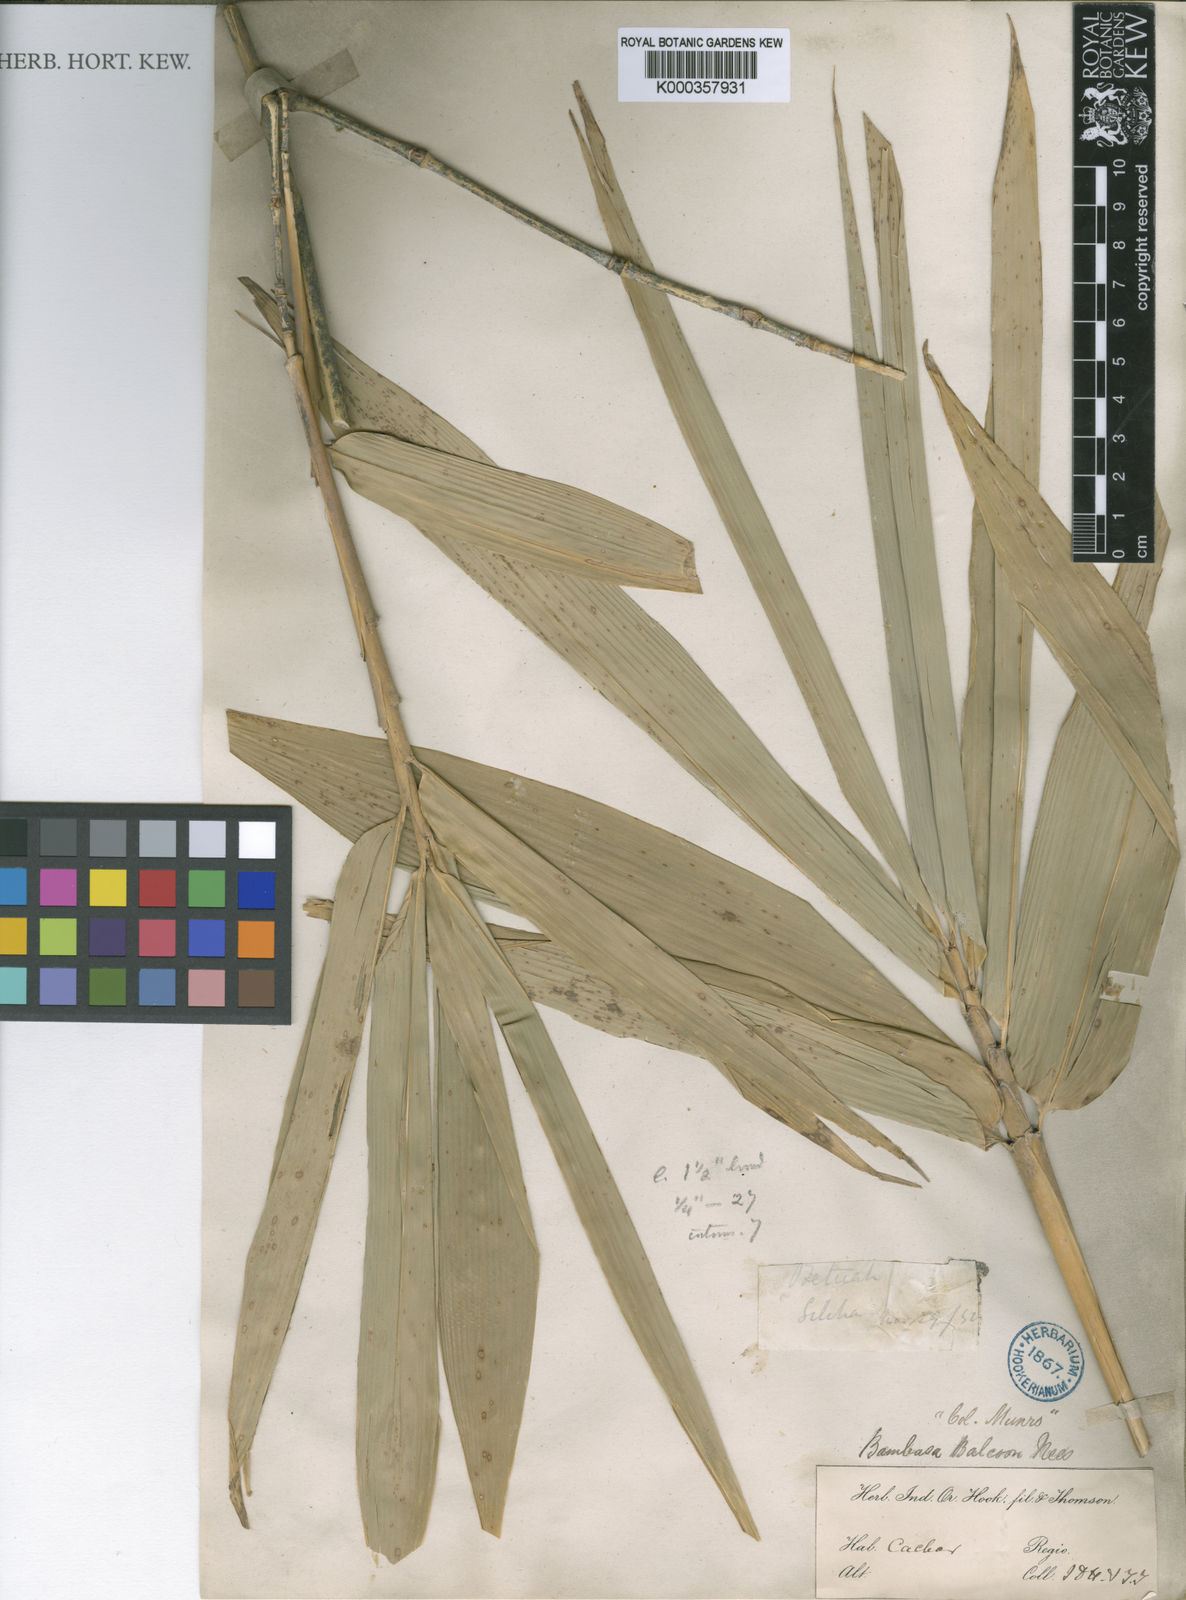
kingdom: Plantae
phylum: Tracheophyta
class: Liliopsida
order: Poales
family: Poaceae
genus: Bambusa
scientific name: Bambusa balcooa
